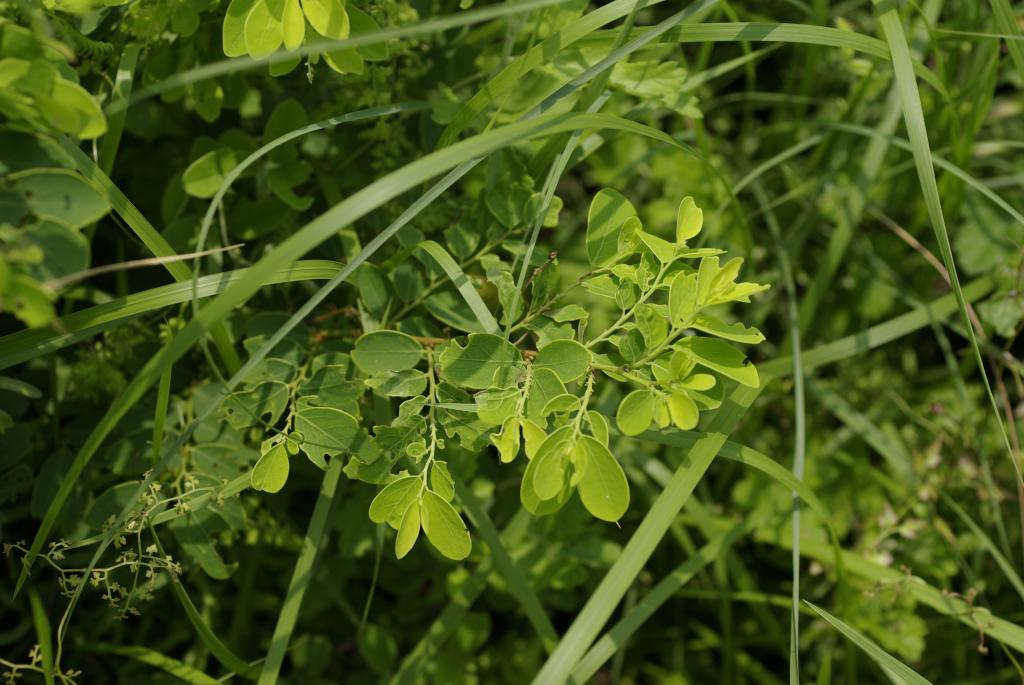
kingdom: Plantae
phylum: Tracheophyta
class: Magnoliopsida
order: Malpighiales
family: Phyllanthaceae
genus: Breynia
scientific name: Breynia officinalis
